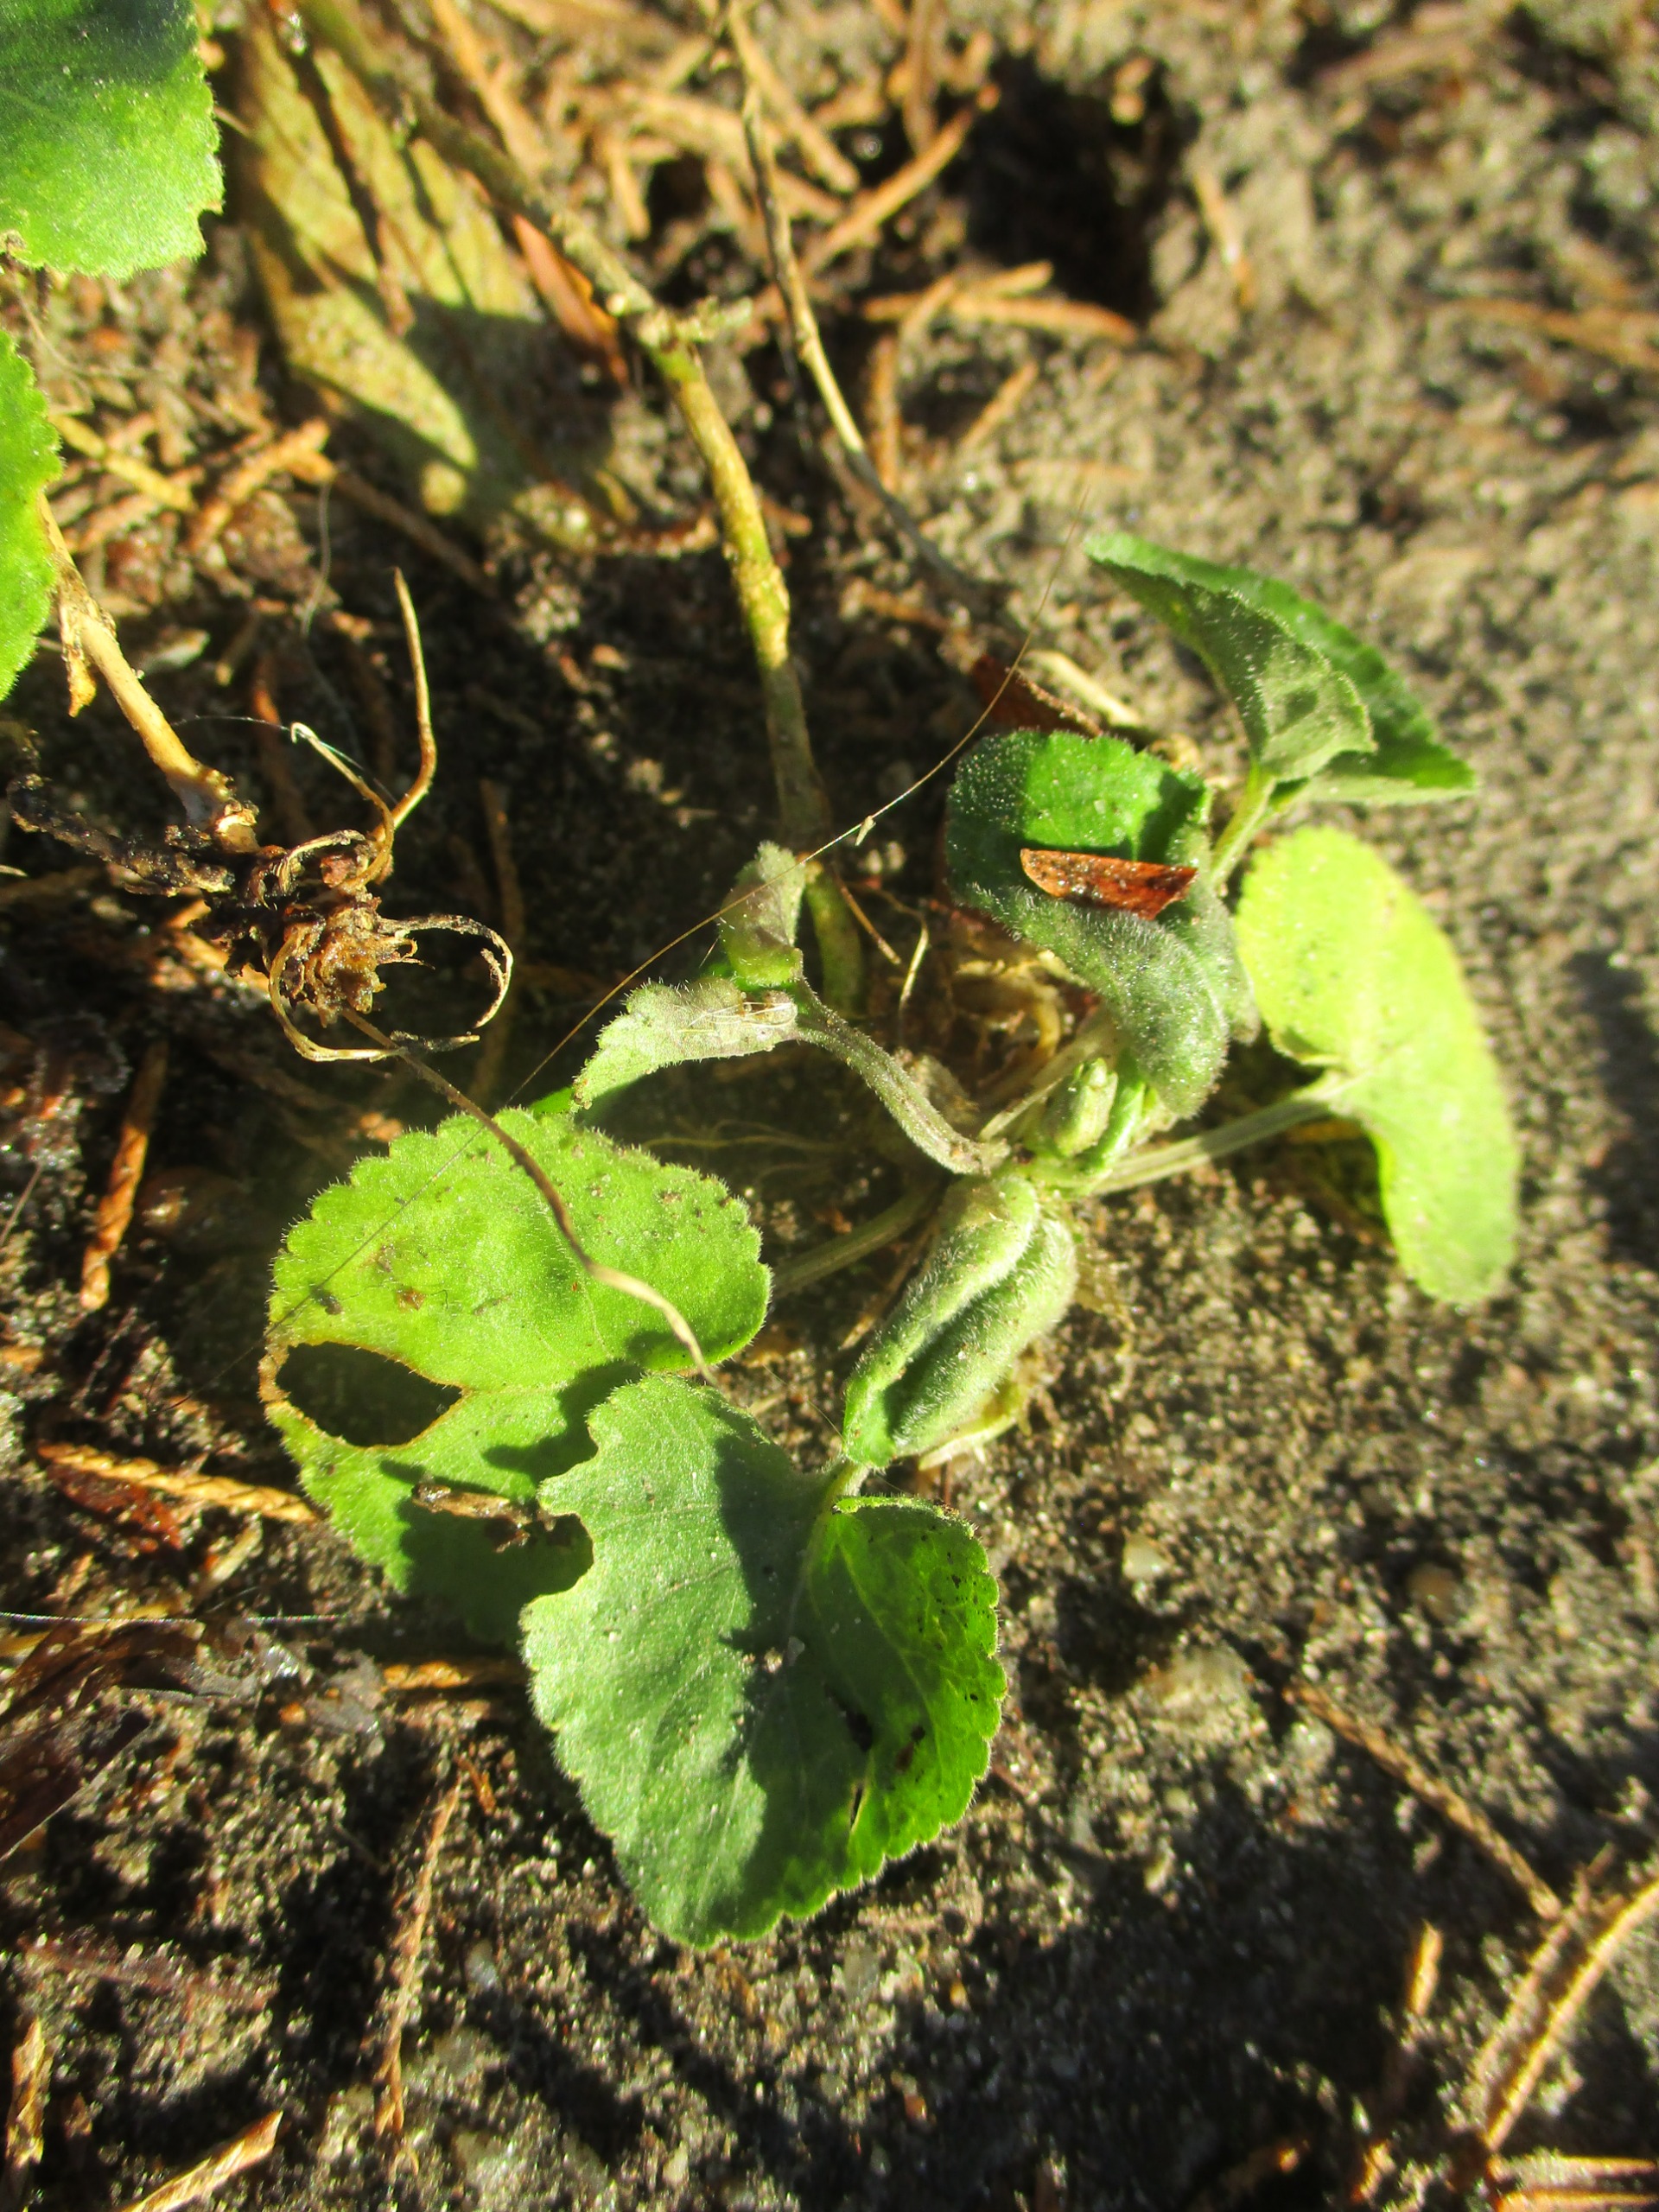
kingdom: Animalia
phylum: Arthropoda
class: Insecta
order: Diptera
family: Cecidomyiidae
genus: Dasineura
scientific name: Dasineura odoratae
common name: Martsviolgalmyg
